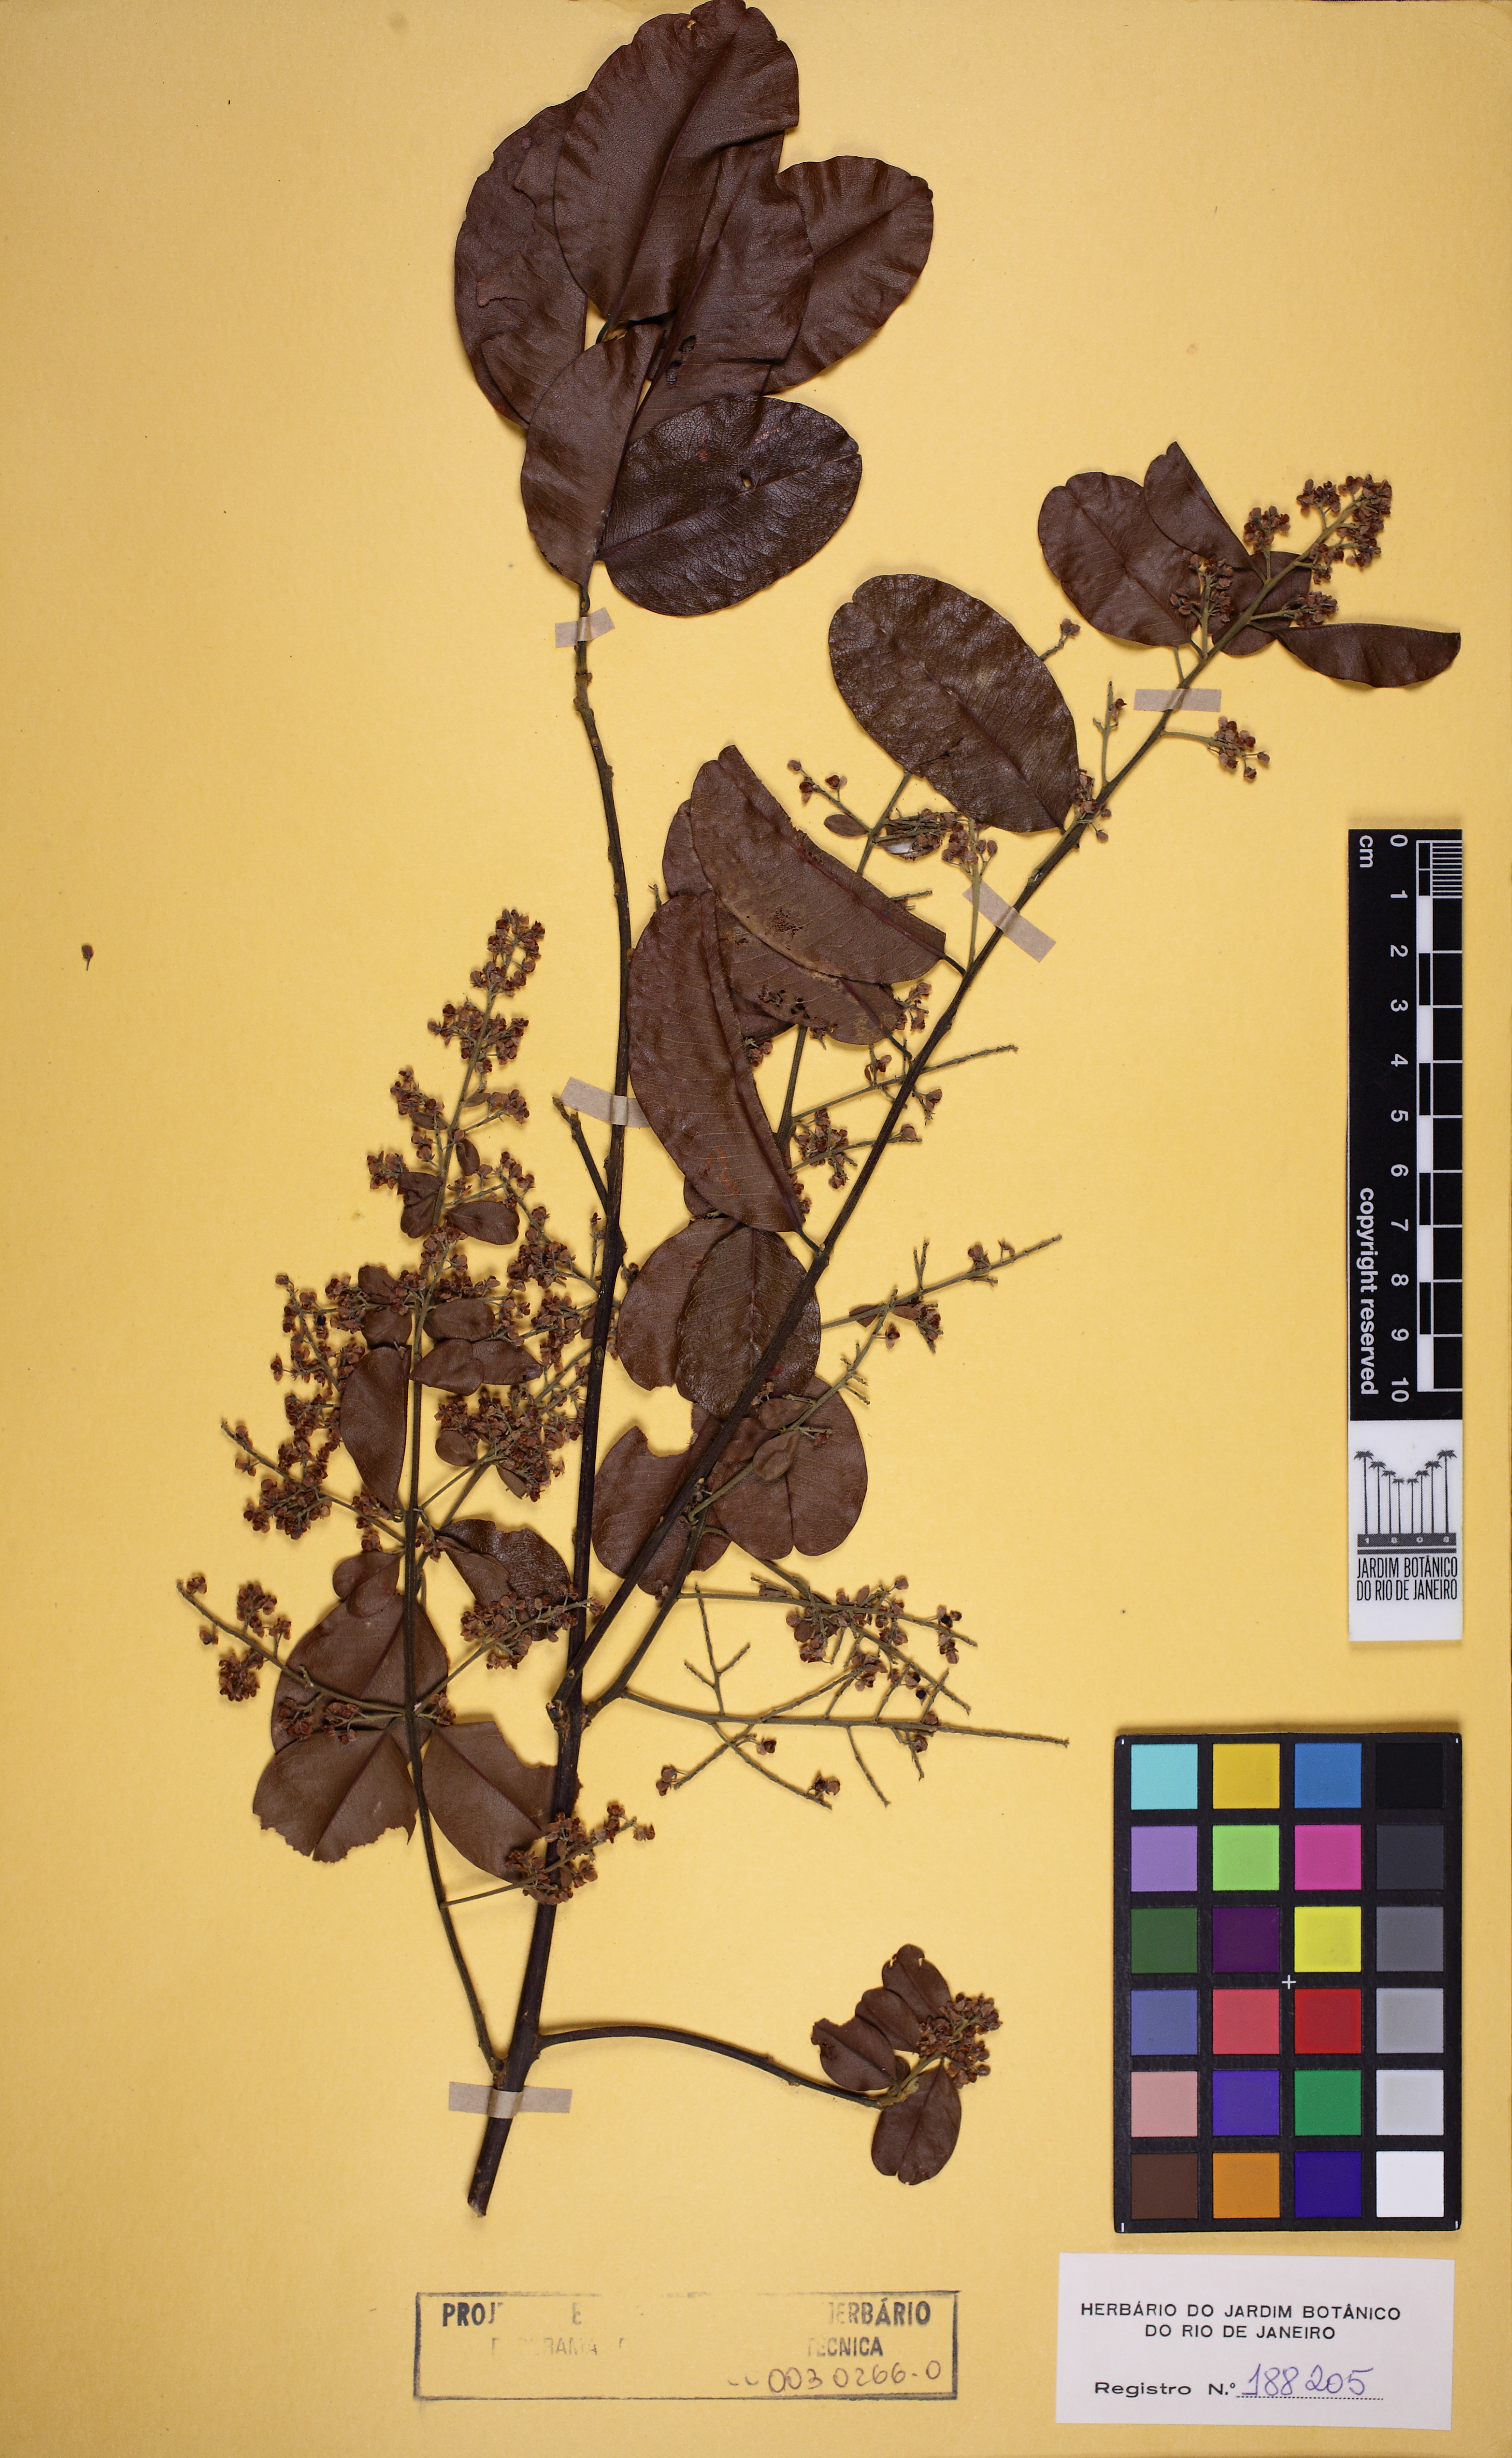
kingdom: Plantae
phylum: Tracheophyta
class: Magnoliopsida
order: Fabales
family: Polygalaceae
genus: Bredemeyera
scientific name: Bredemeyera divaricata
